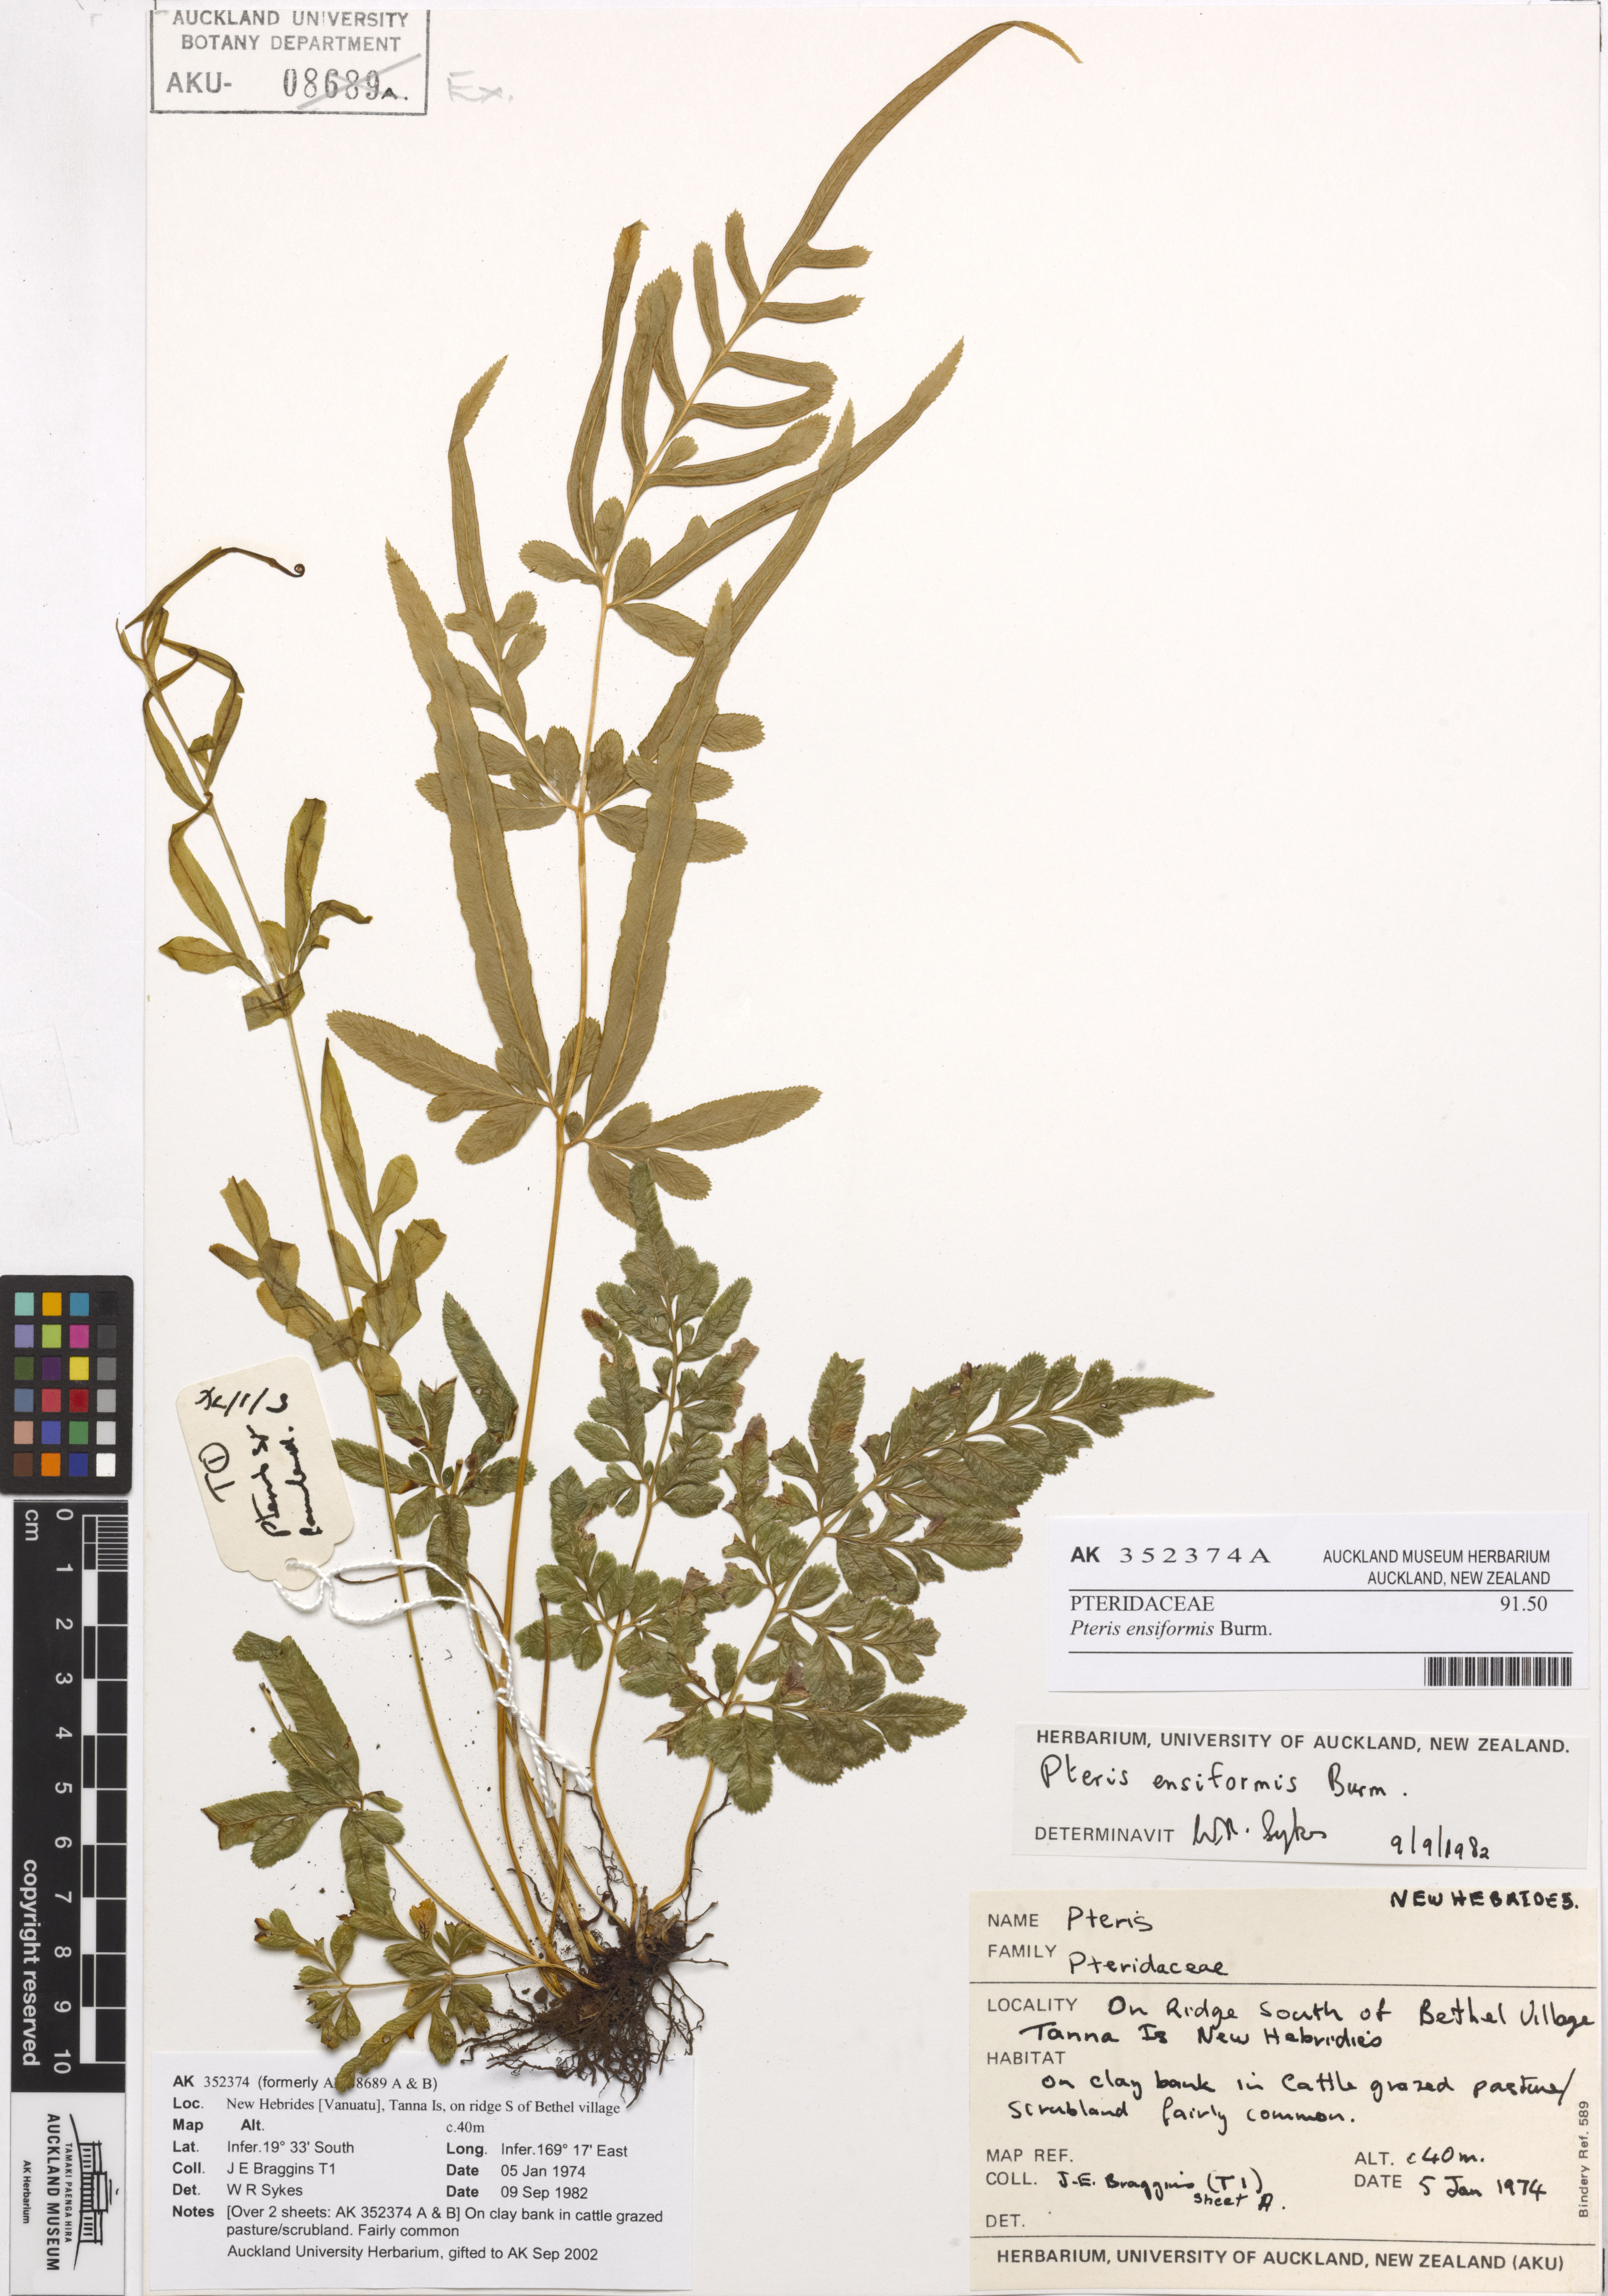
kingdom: Plantae
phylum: Tracheophyta
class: Polypodiopsida
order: Polypodiales
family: Pteridaceae
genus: Pteris
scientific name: Pteris ensiformis
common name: Sword brake
